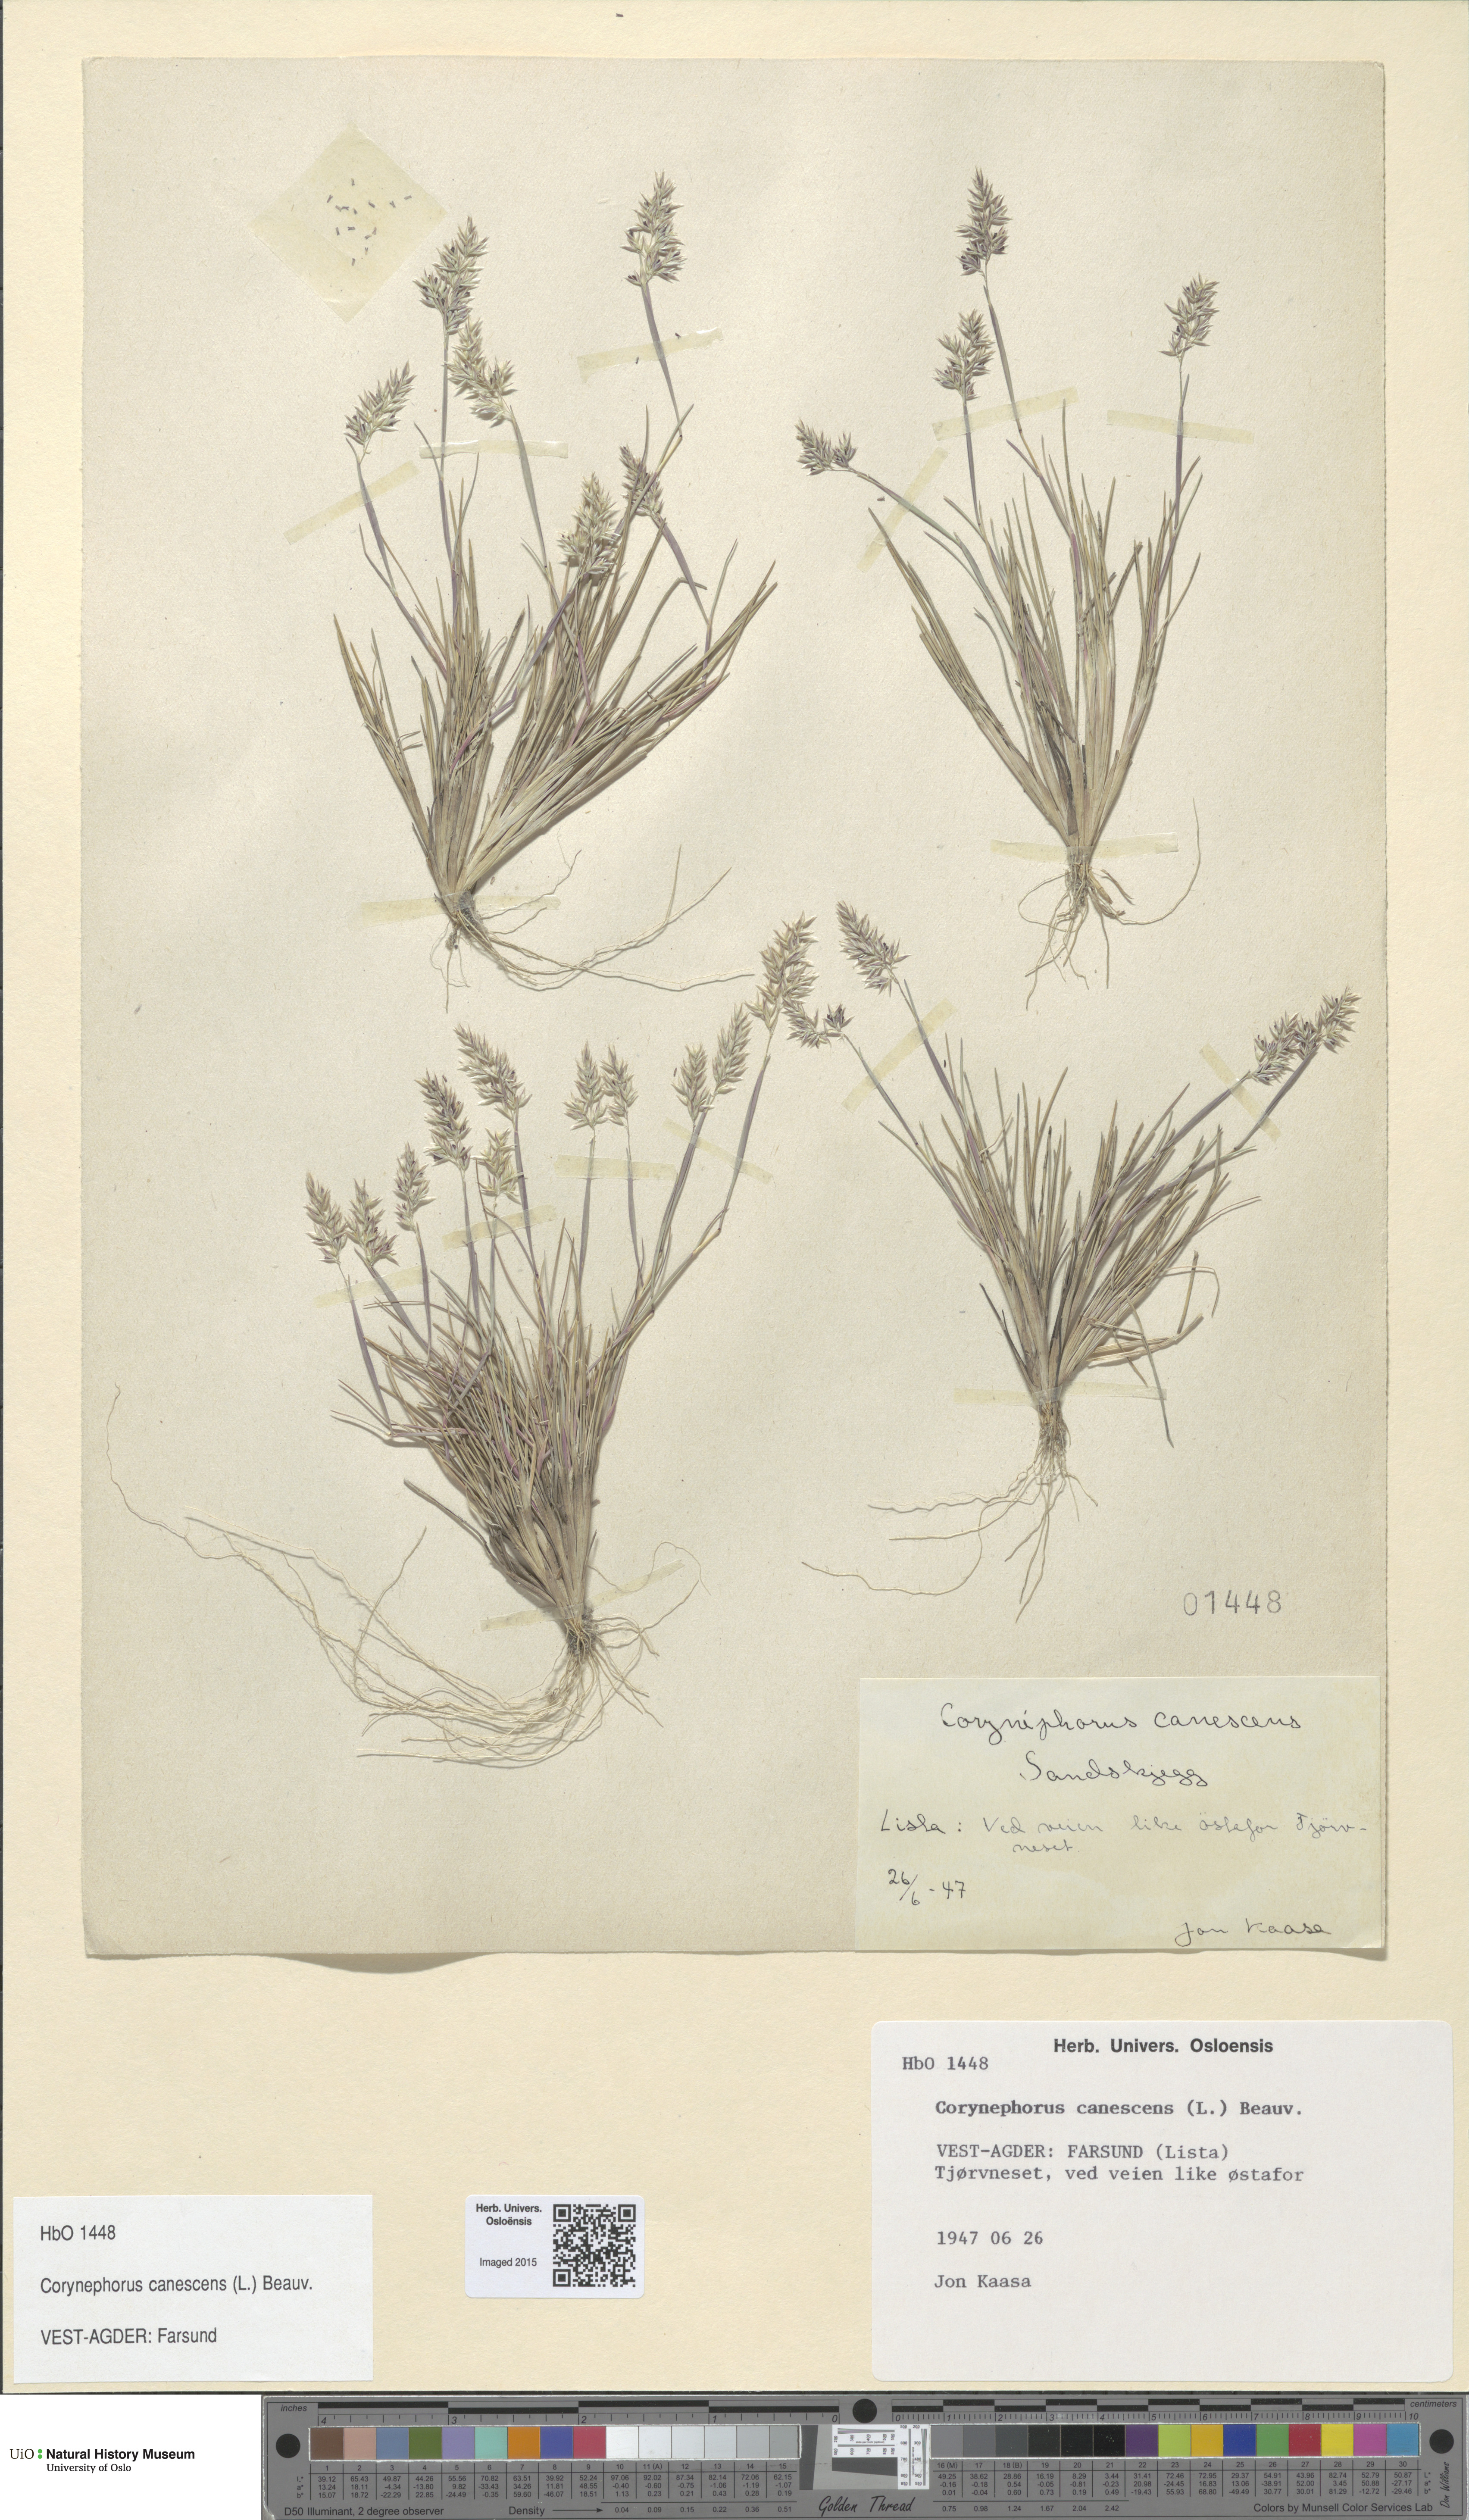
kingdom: Plantae
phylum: Tracheophyta
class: Liliopsida
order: Poales
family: Poaceae
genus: Corynephorus
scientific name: Corynephorus canescens
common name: Grey hair-grass
